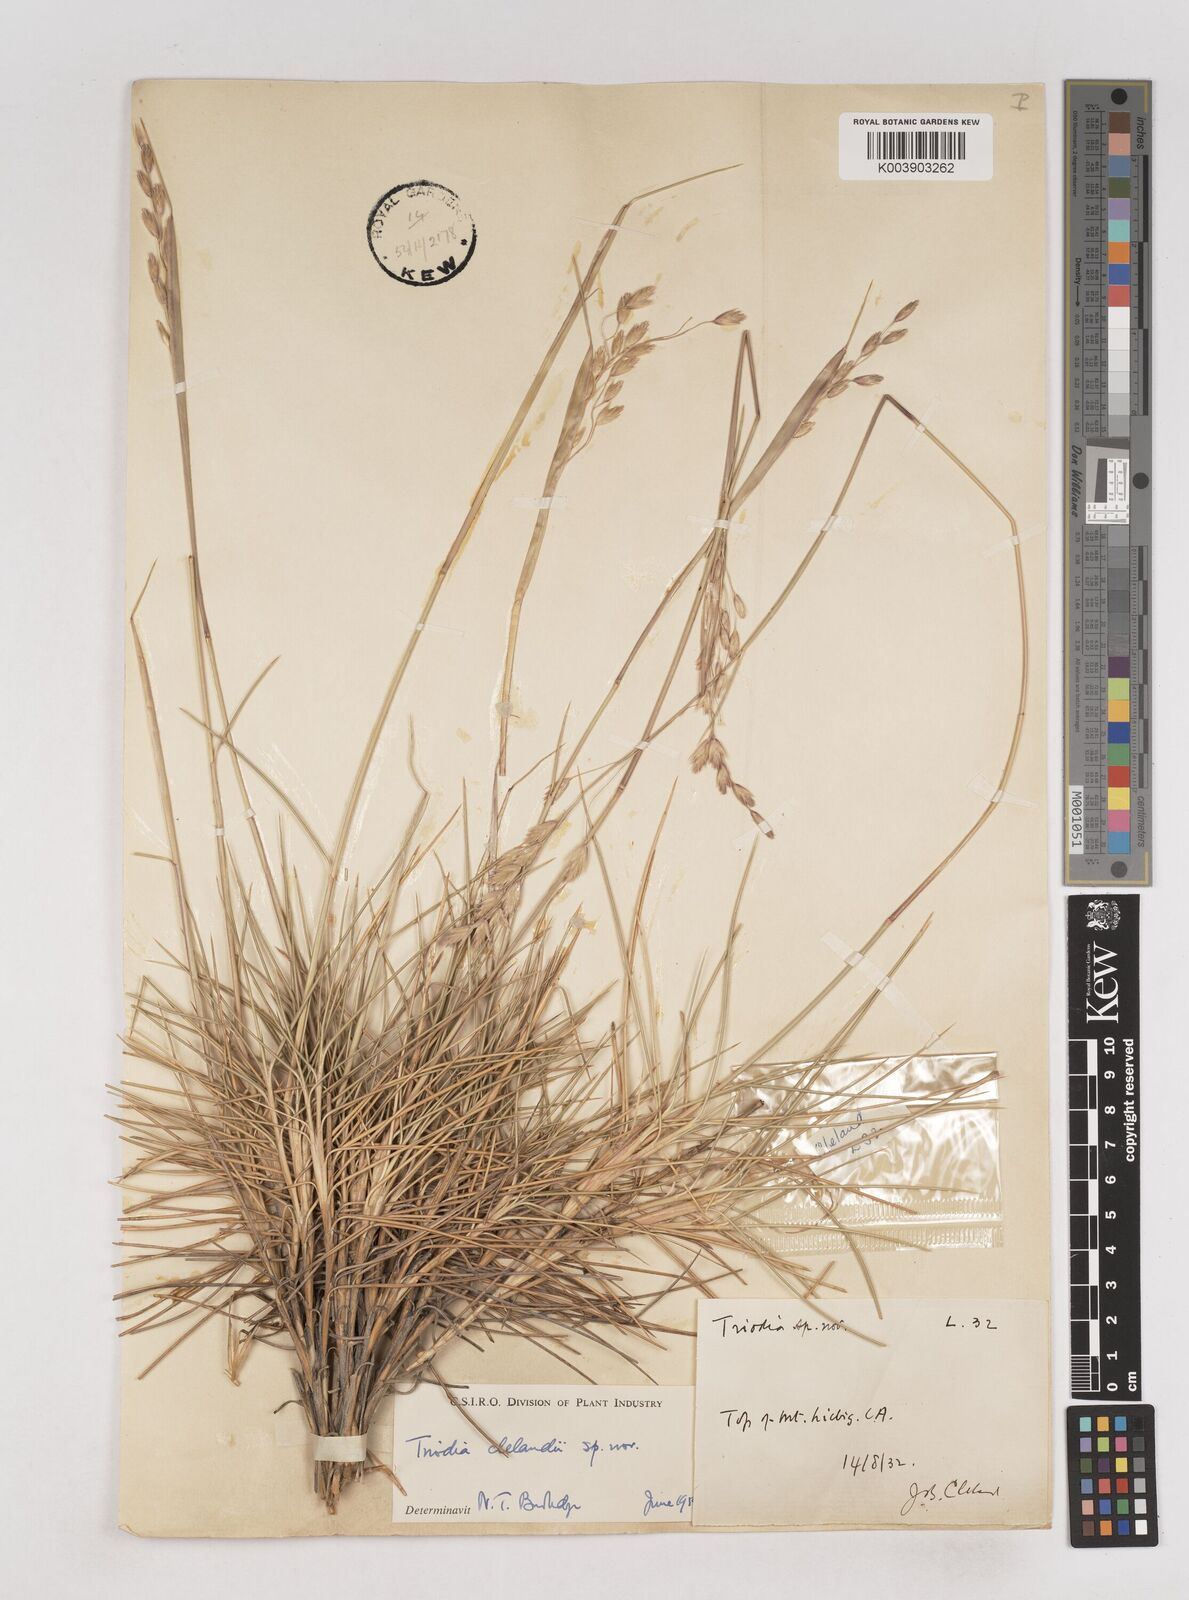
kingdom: Plantae
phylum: Tracheophyta
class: Liliopsida
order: Poales
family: Poaceae
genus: Triodia
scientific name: Triodia brizoides
